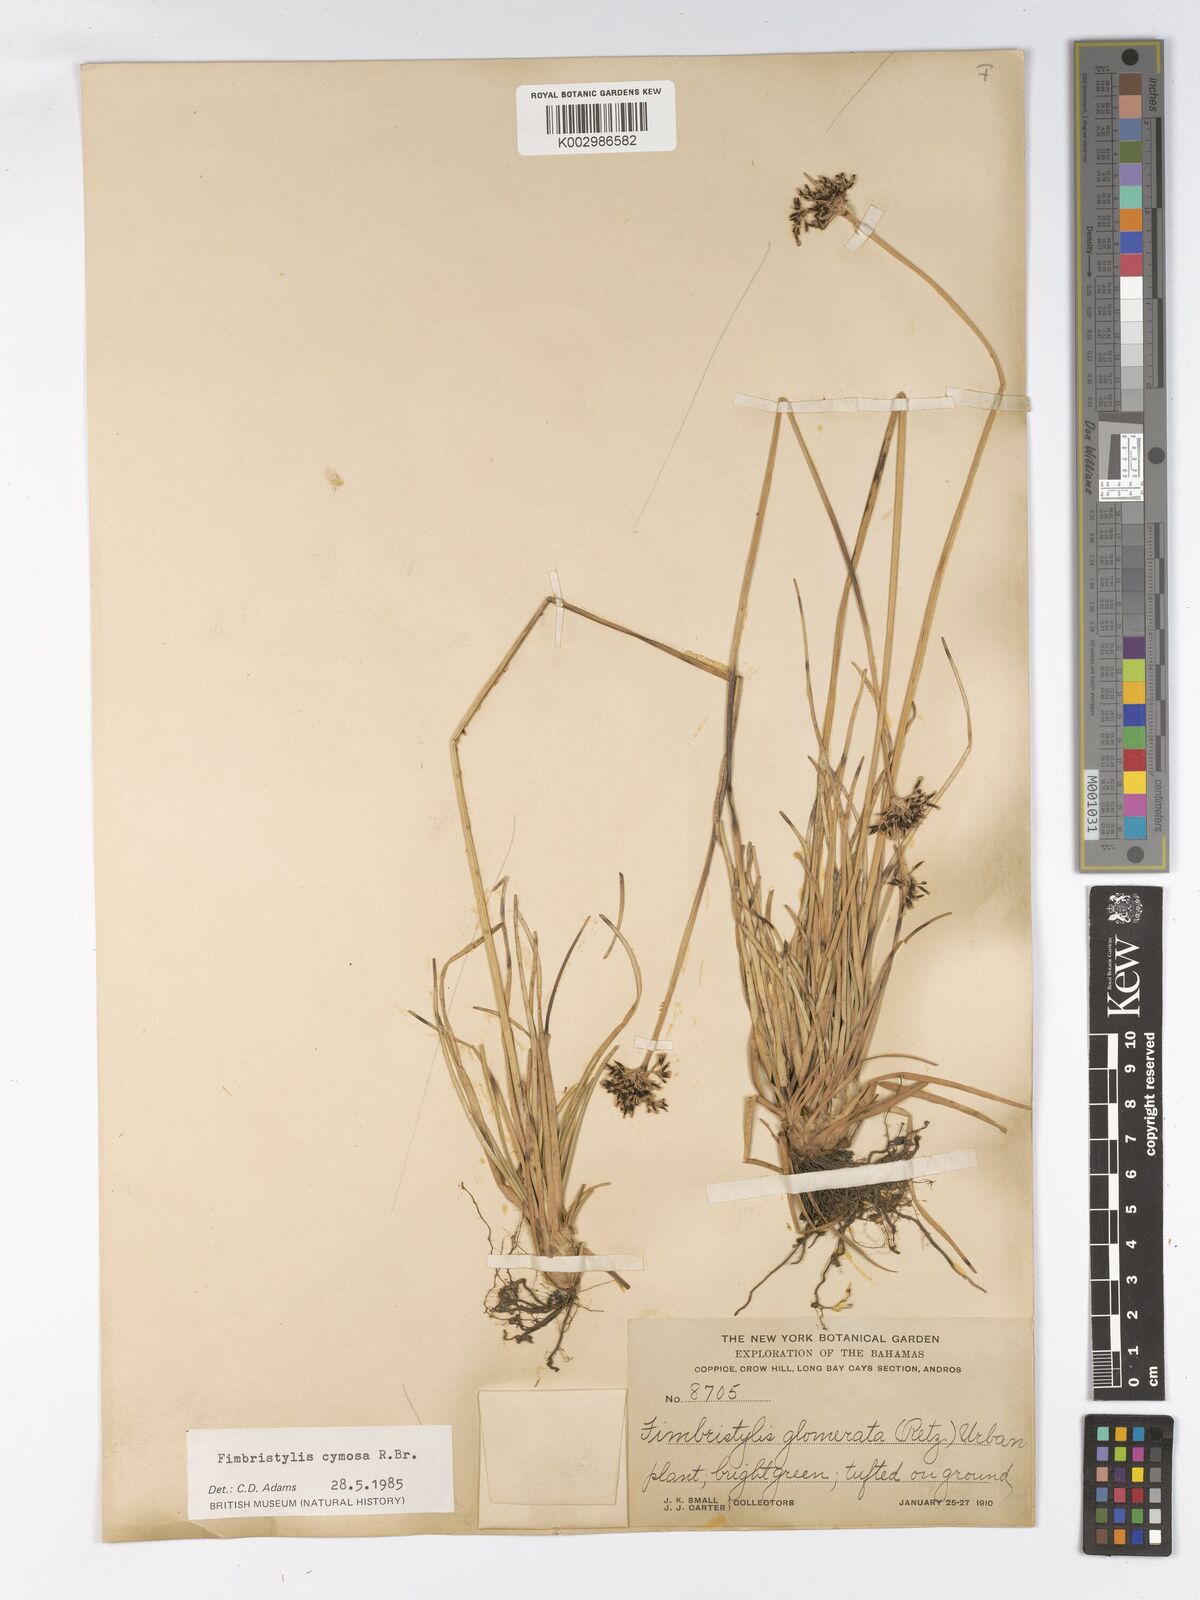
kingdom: Plantae
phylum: Tracheophyta
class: Liliopsida
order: Poales
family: Cyperaceae
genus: Fimbristylis
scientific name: Fimbristylis
